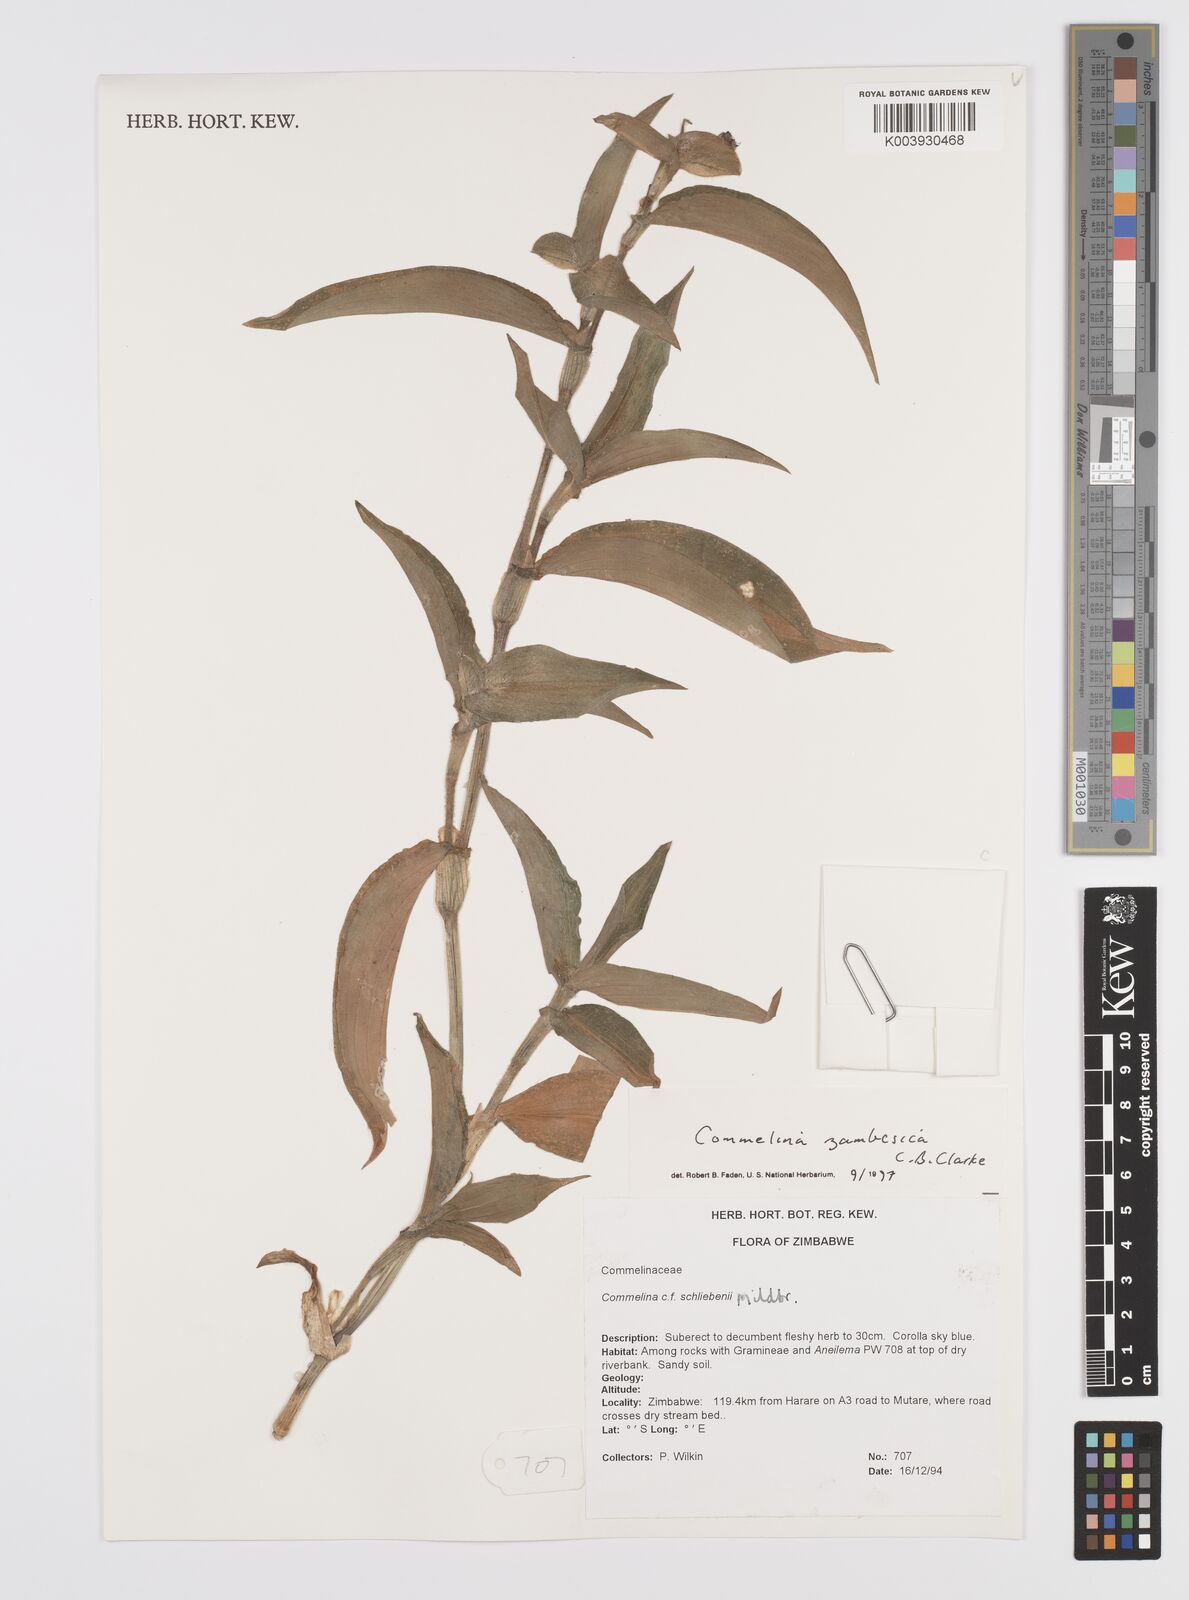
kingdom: Plantae
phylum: Tracheophyta
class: Liliopsida
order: Commelinales
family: Commelinaceae
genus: Commelina
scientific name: Commelina zambesica
